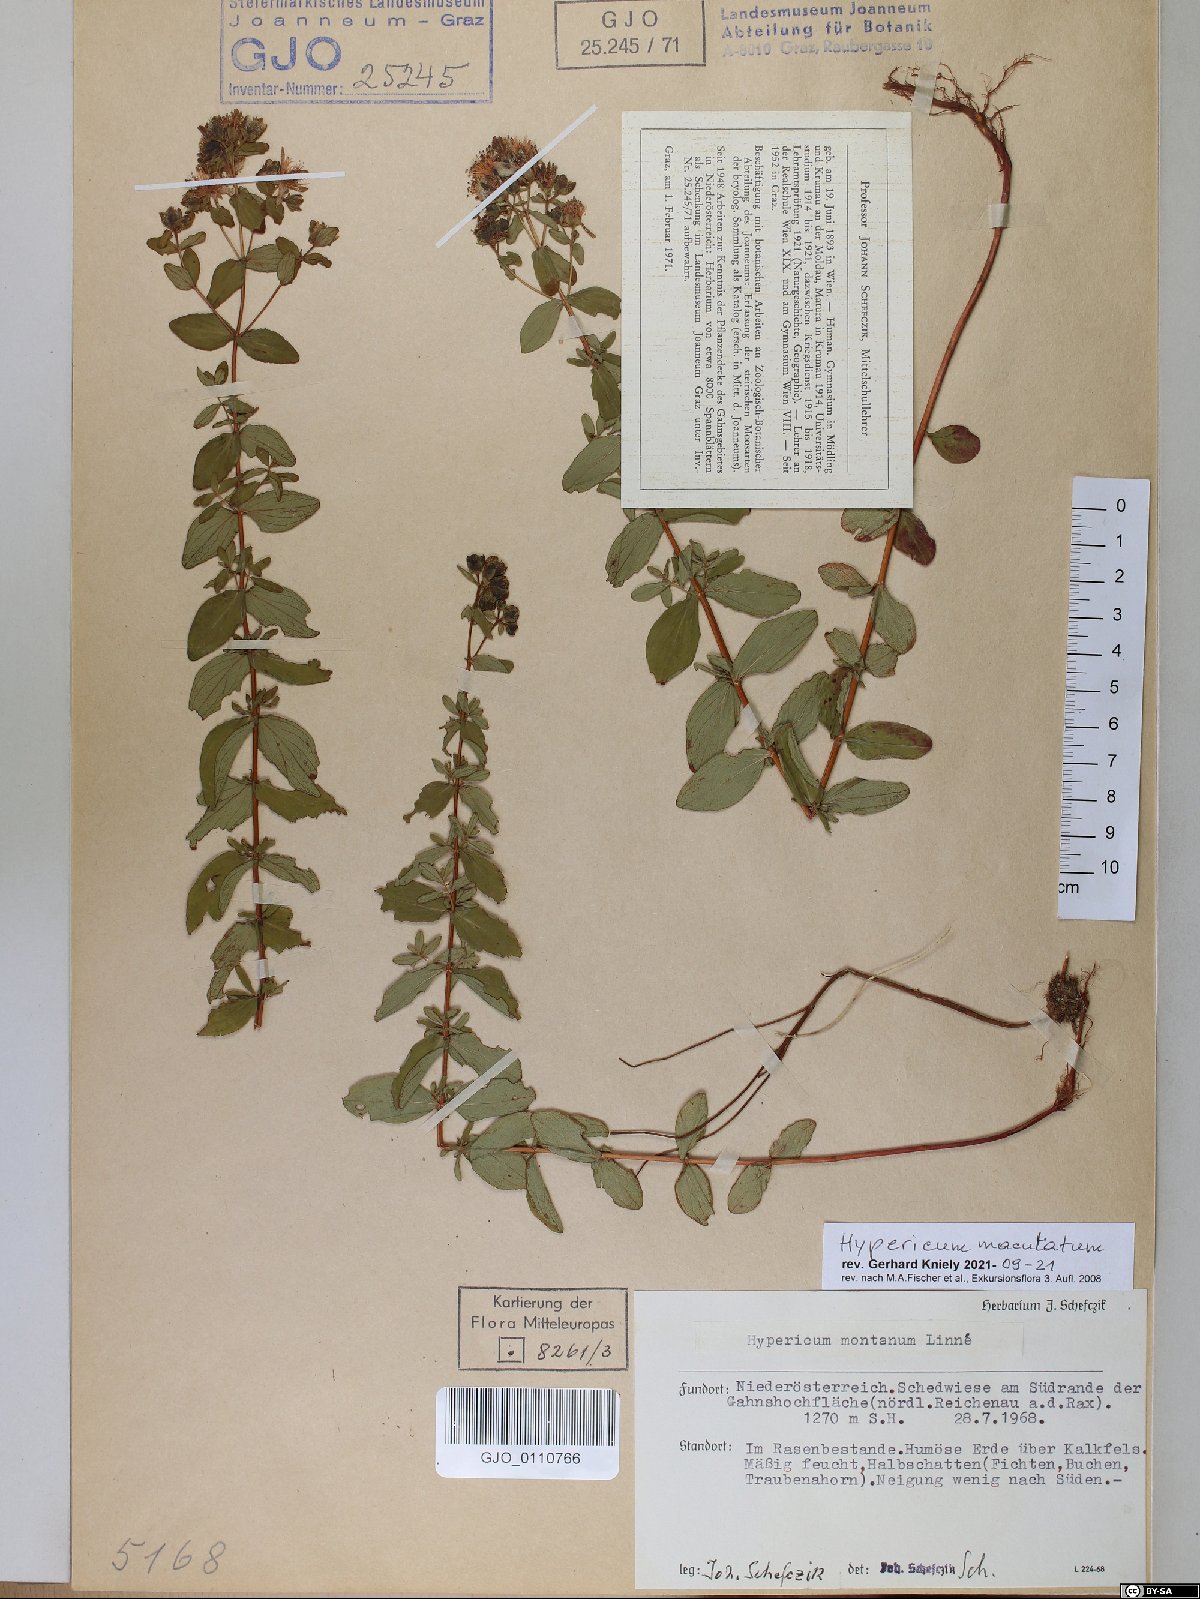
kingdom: Plantae
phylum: Tracheophyta
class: Magnoliopsida
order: Malpighiales
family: Hypericaceae
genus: Hypericum
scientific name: Hypericum maculatum
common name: Imperforate st. john's-wort
